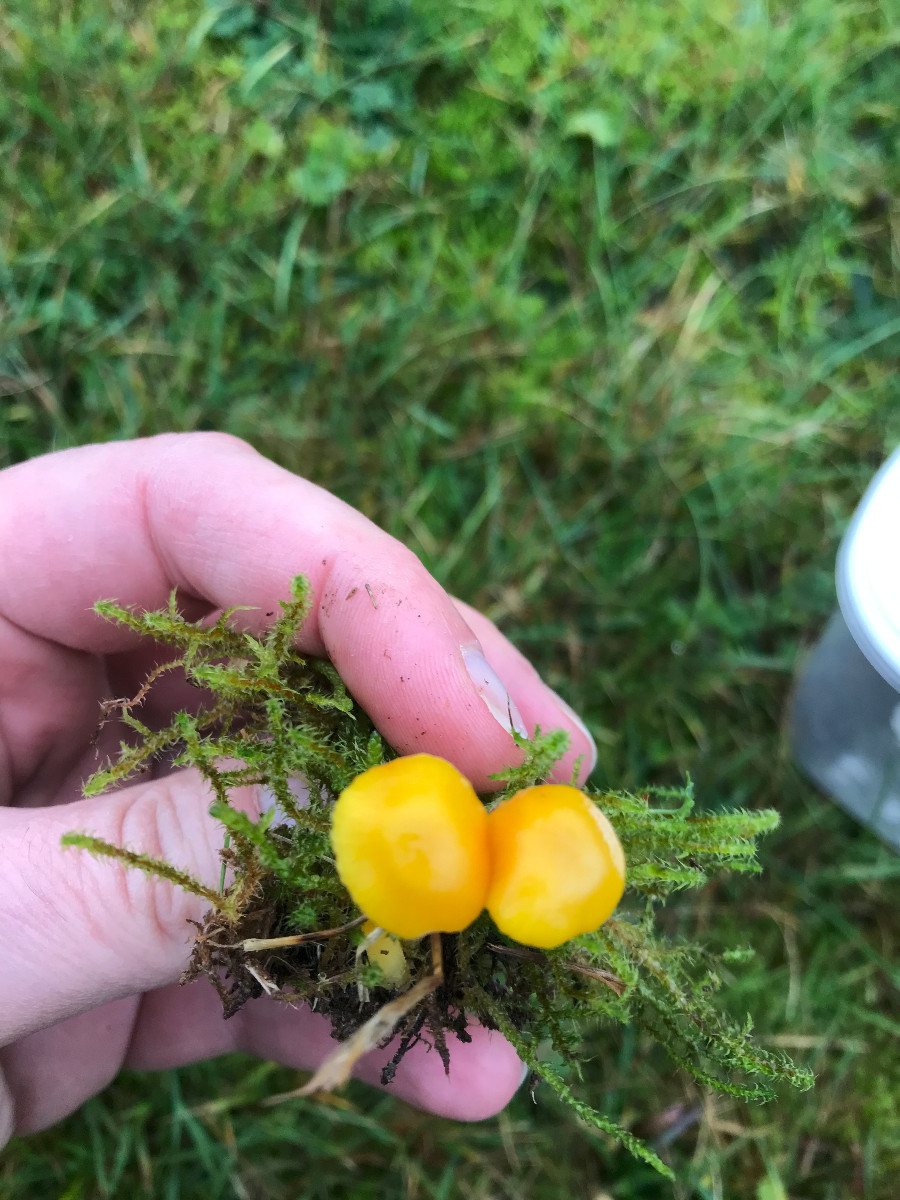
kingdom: Fungi
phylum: Basidiomycota
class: Agaricomycetes
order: Agaricales
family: Hygrophoraceae
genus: Hygrocybe
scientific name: Hygrocybe ceracea
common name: voksgul vokshat
